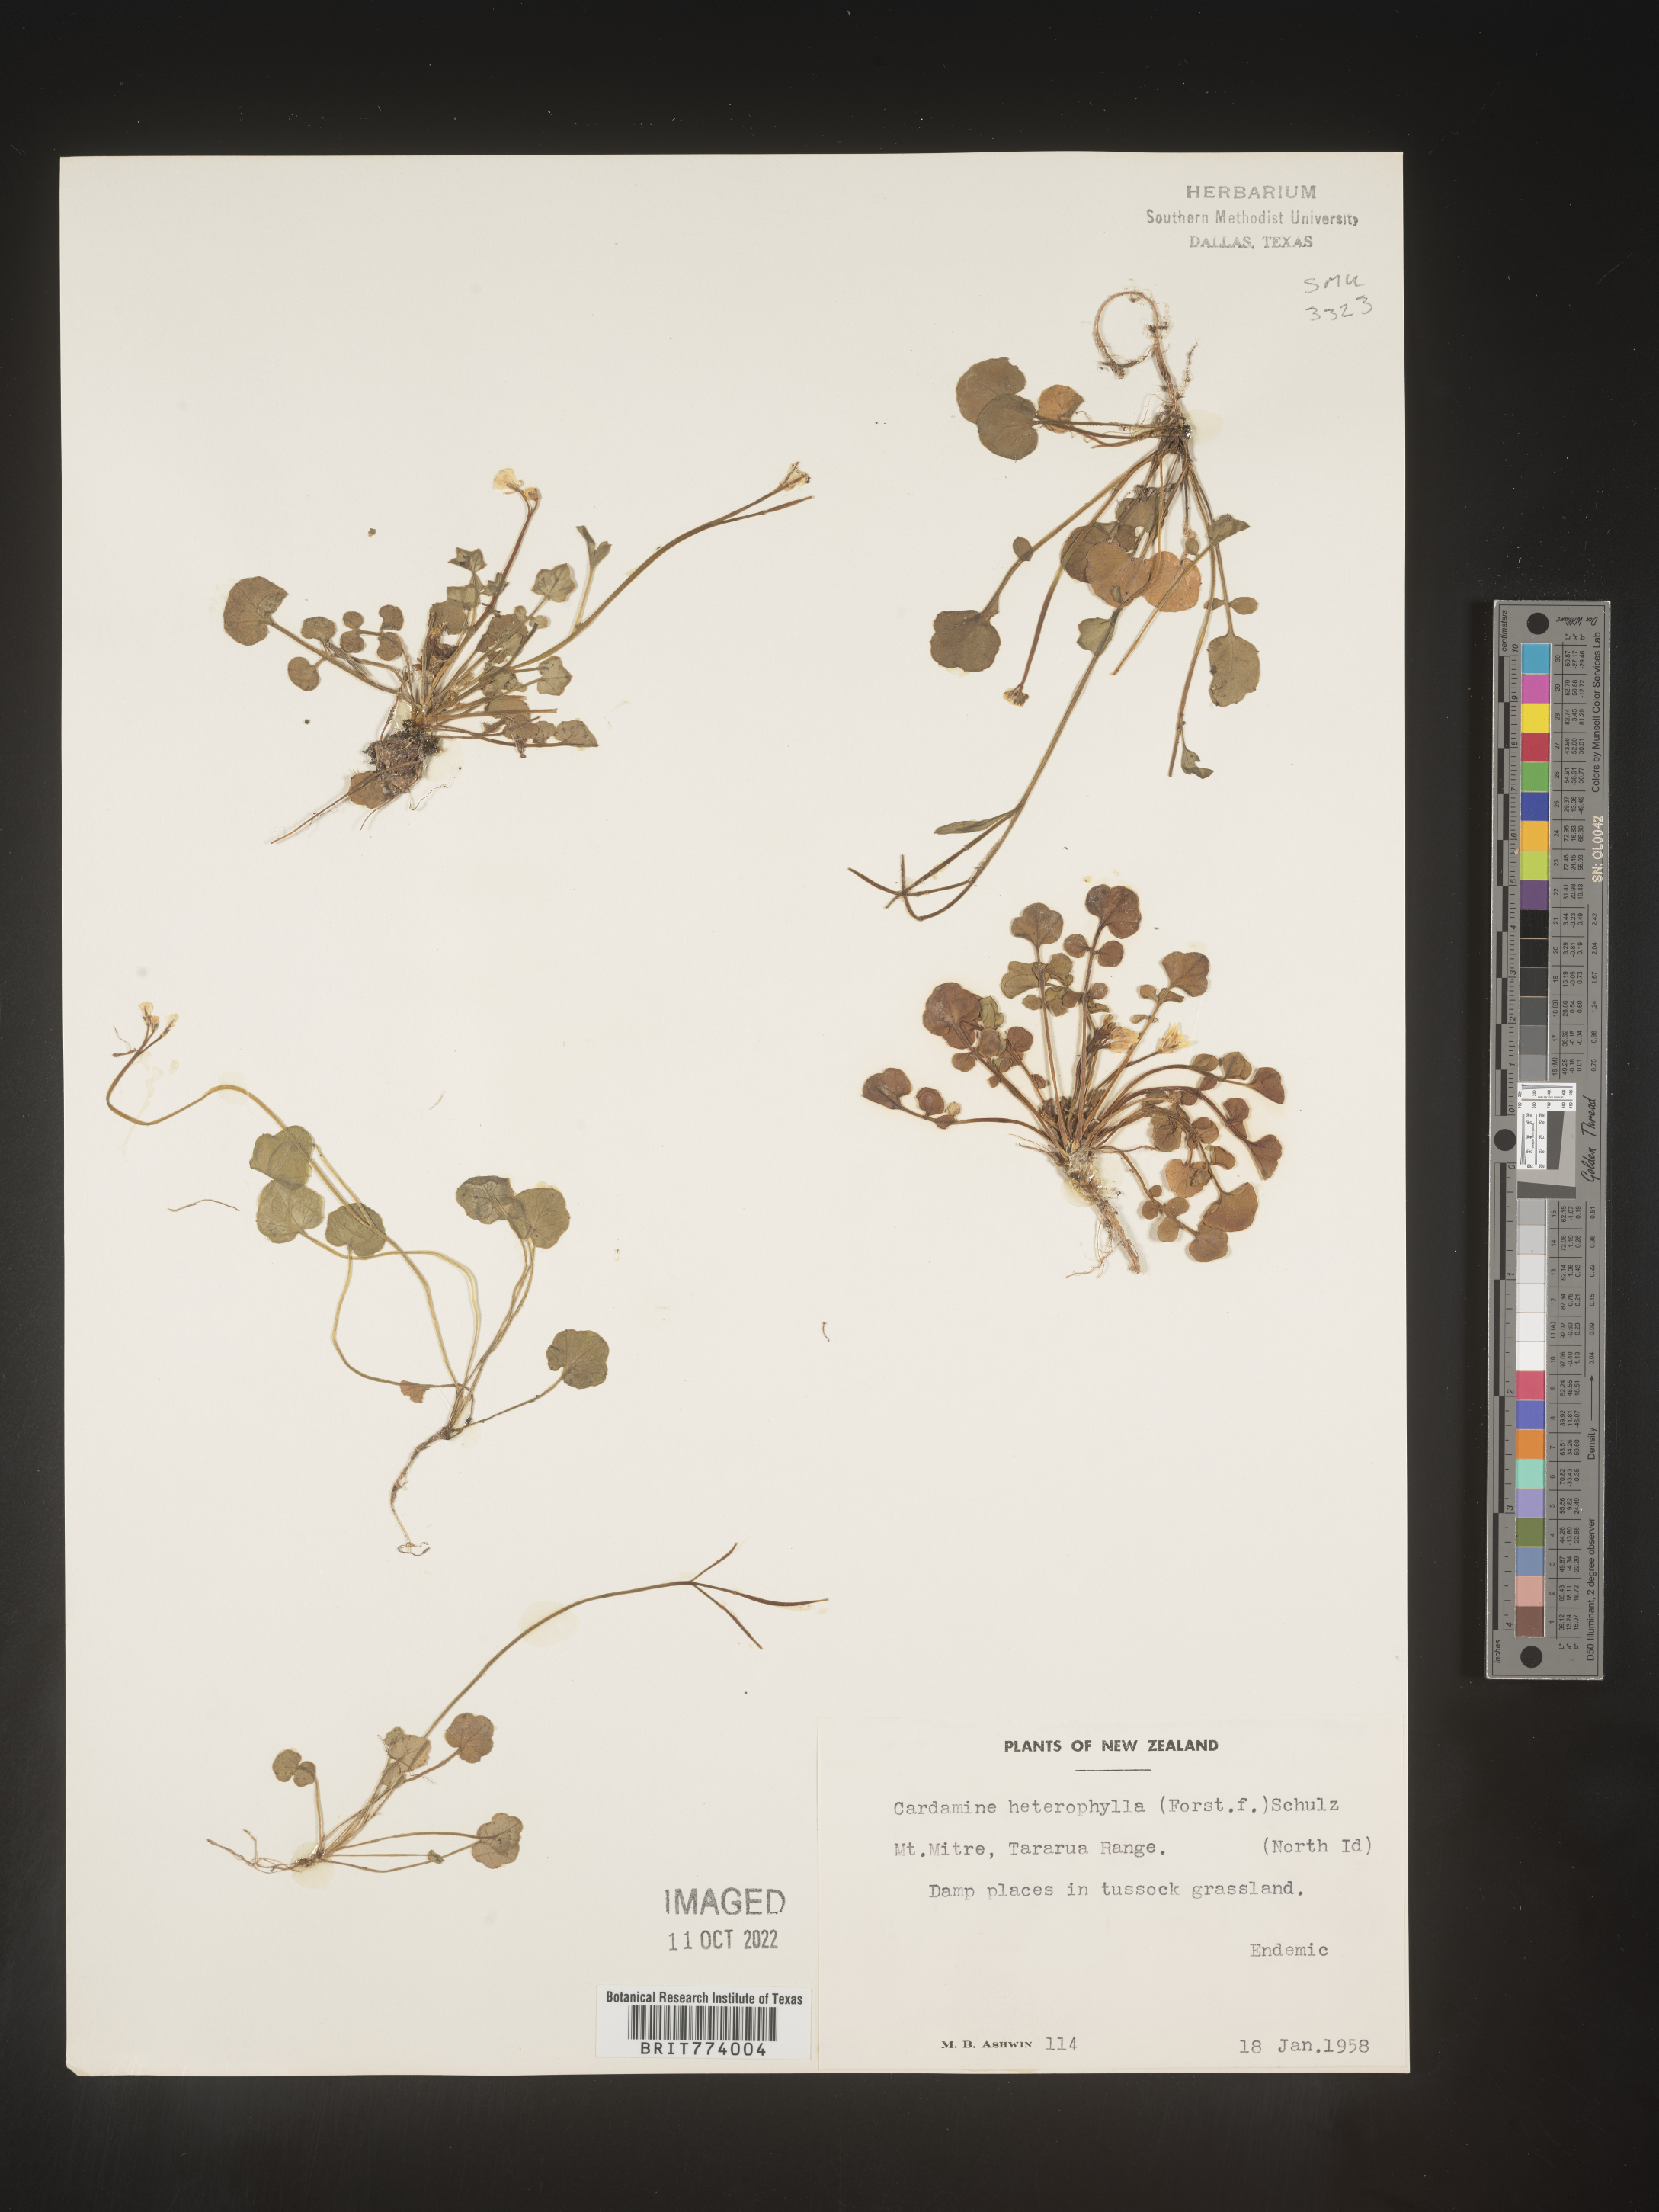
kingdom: Plantae
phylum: Tracheophyta
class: Magnoliopsida
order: Brassicales
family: Brassicaceae
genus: Cardamine
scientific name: Cardamine
